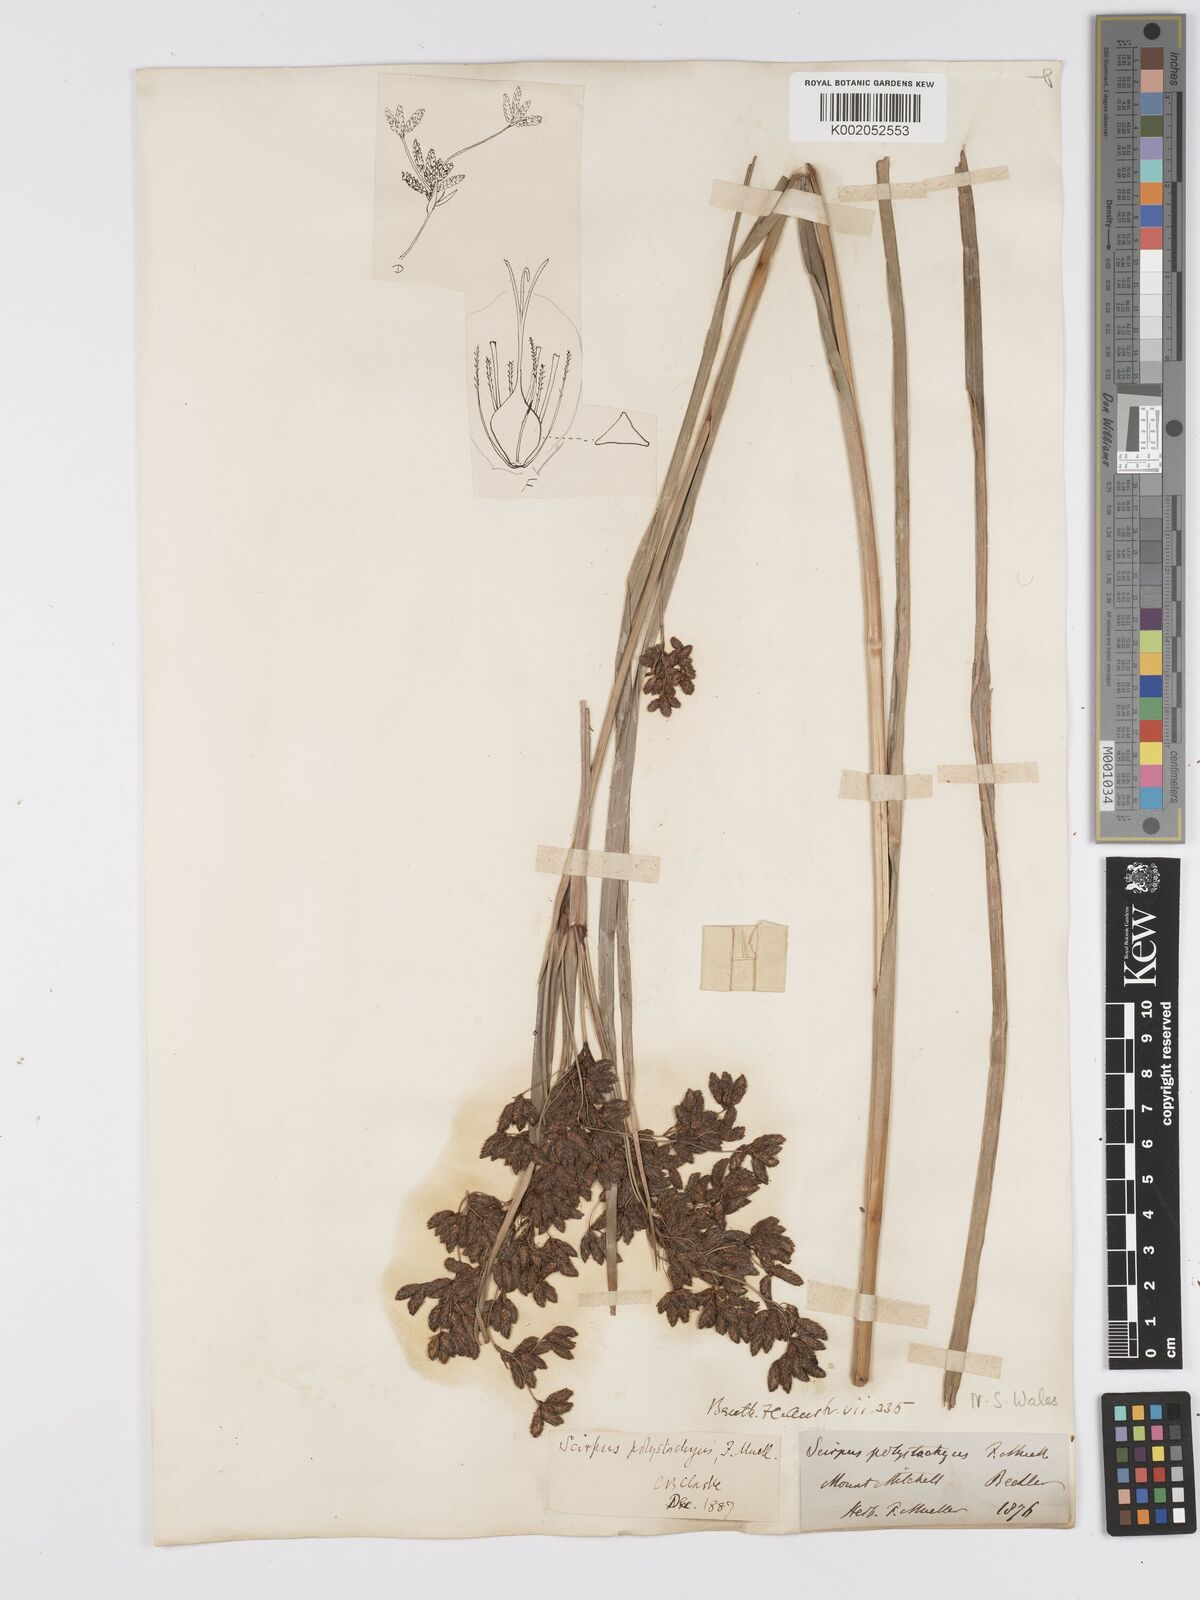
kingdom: Plantae
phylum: Tracheophyta
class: Liliopsida
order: Poales
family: Cyperaceae
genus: Scirpus
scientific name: Scirpus polystachyus
